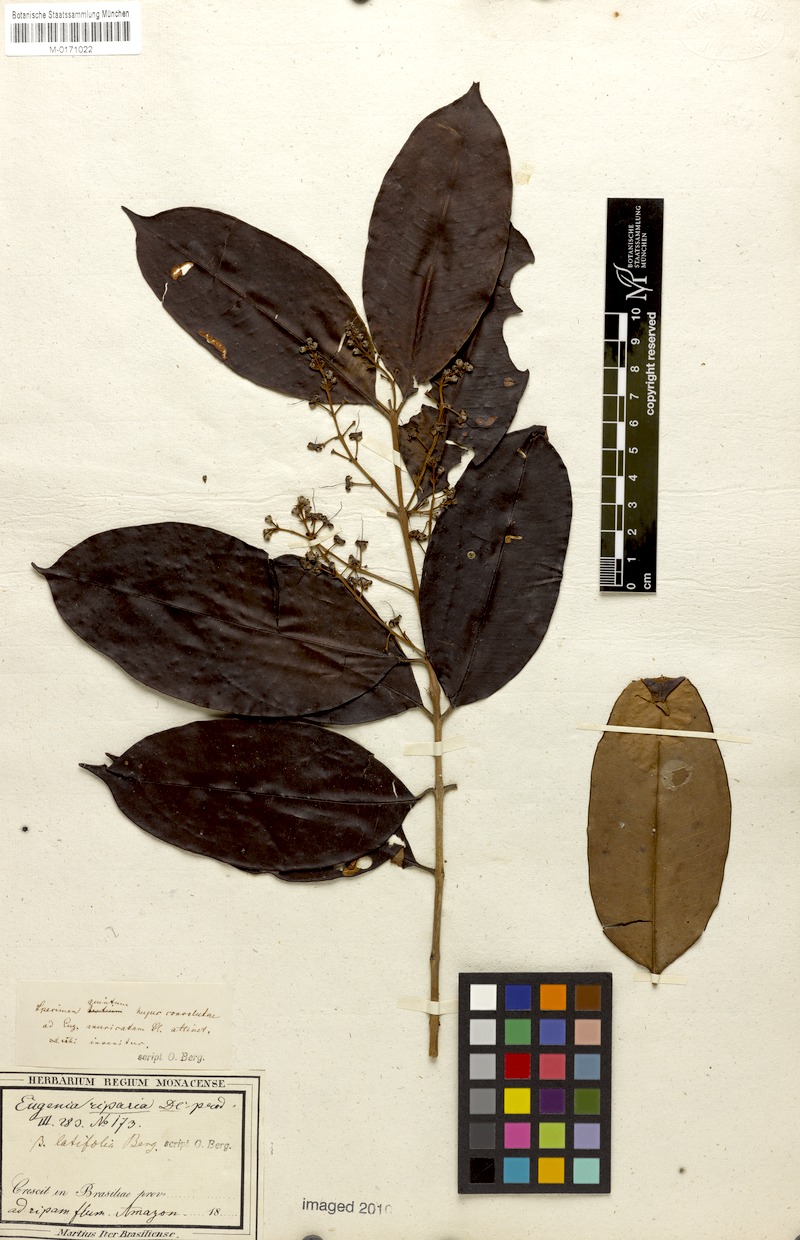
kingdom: Plantae
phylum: Tracheophyta
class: Magnoliopsida
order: Myrtales
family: Myrtaceae
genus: Eugenia
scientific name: Eugenia patens
